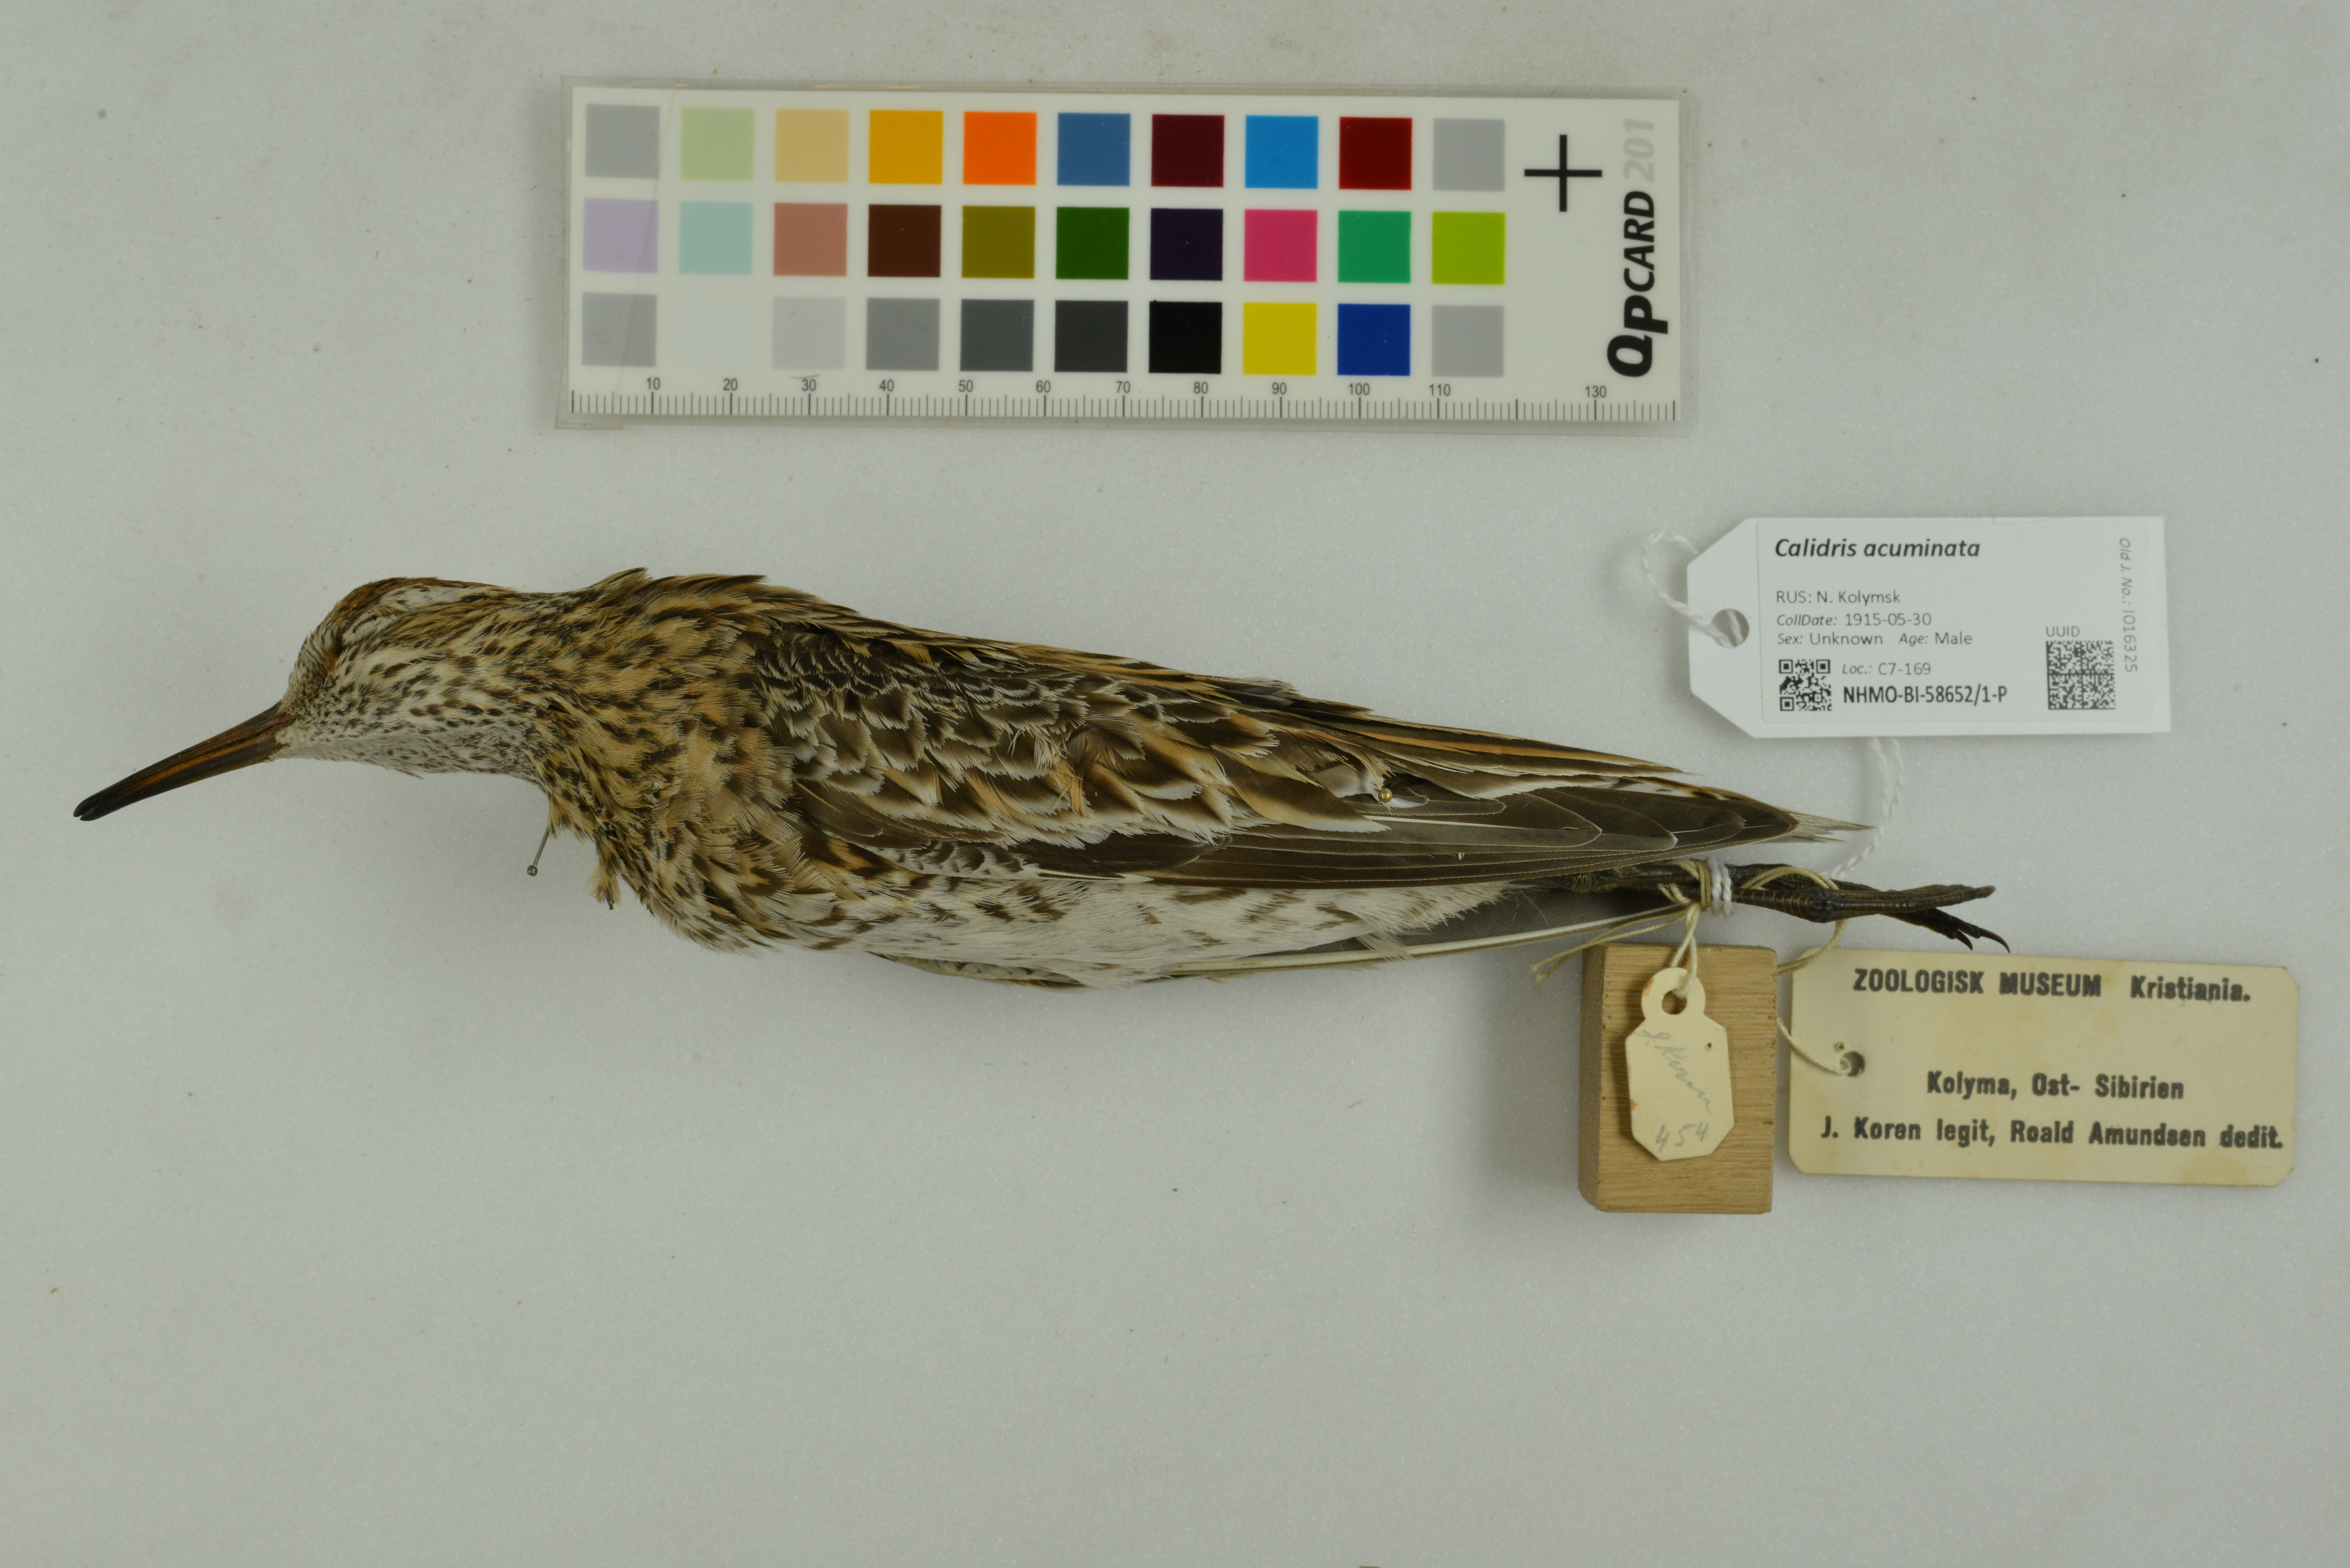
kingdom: Animalia
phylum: Chordata
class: Aves
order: Charadriiformes
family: Scolopacidae
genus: Calidris
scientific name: Calidris acuminata
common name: Sharp-tailed sandpiper
